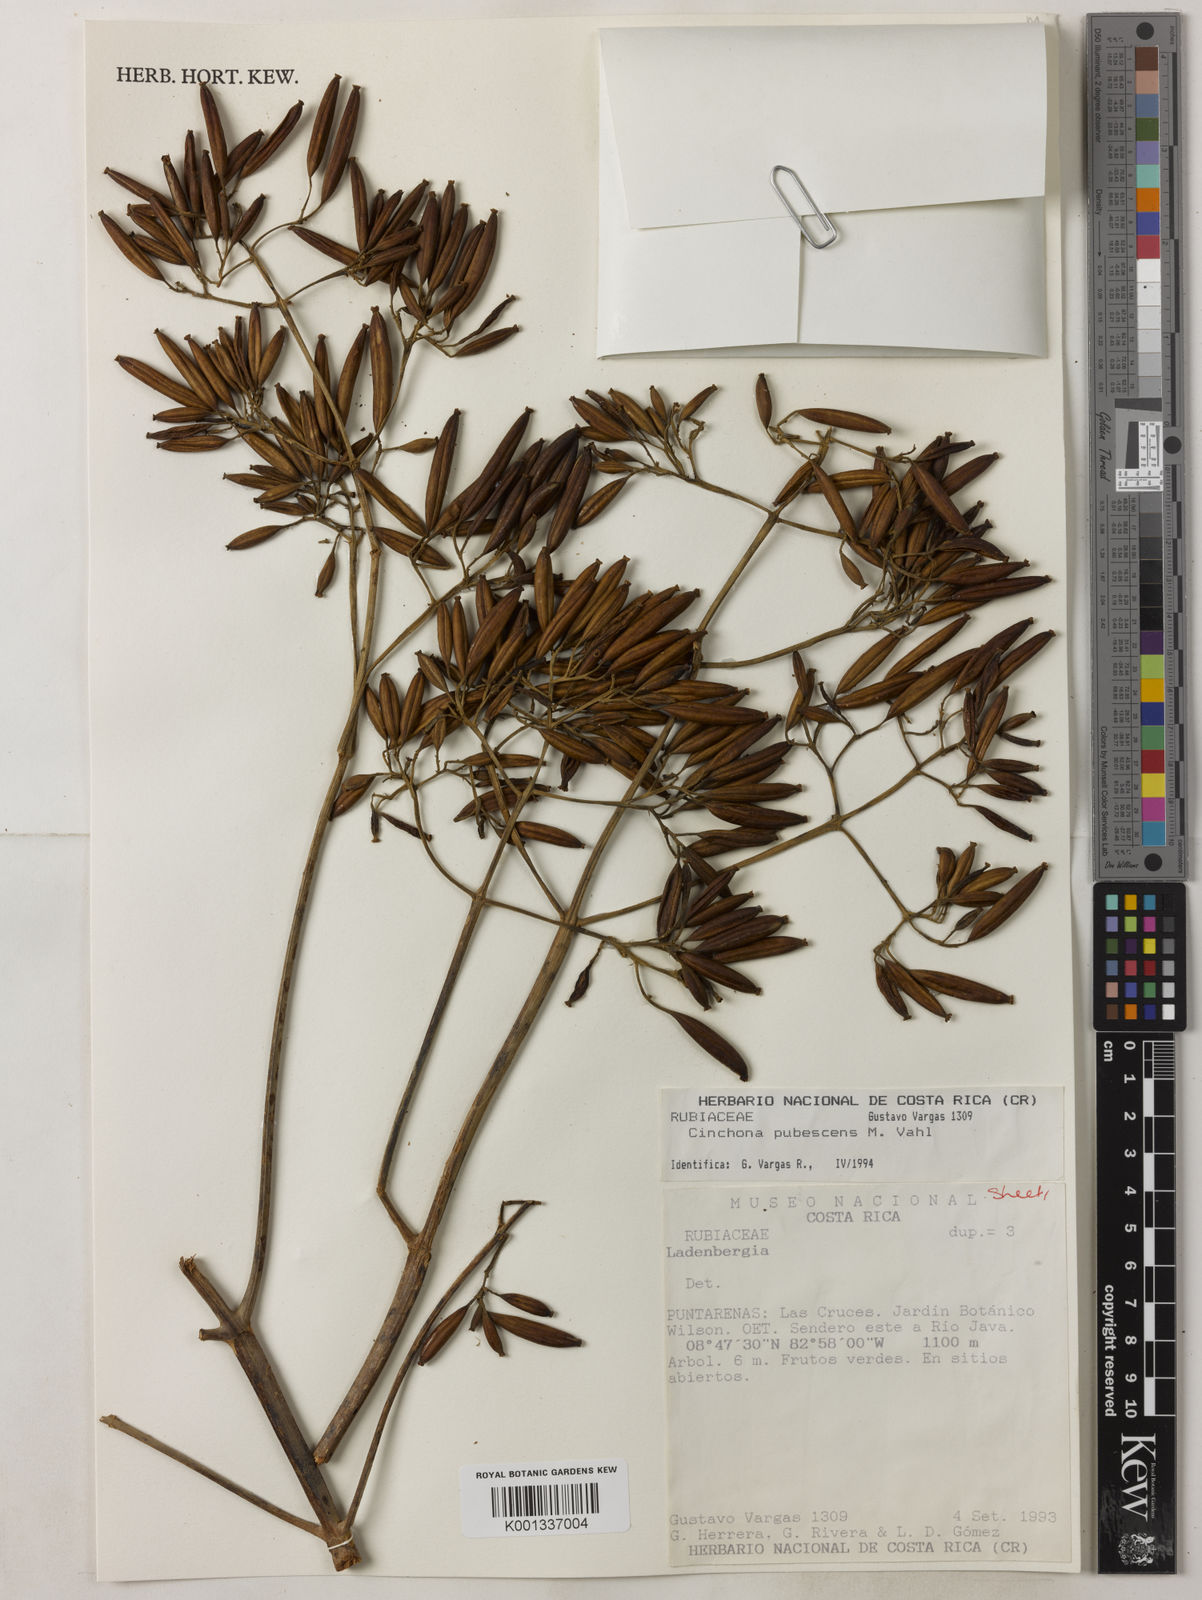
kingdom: Plantae
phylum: Tracheophyta
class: Magnoliopsida
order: Gentianales
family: Rubiaceae
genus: Cinchona
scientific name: Cinchona pubescens
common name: Quinine
